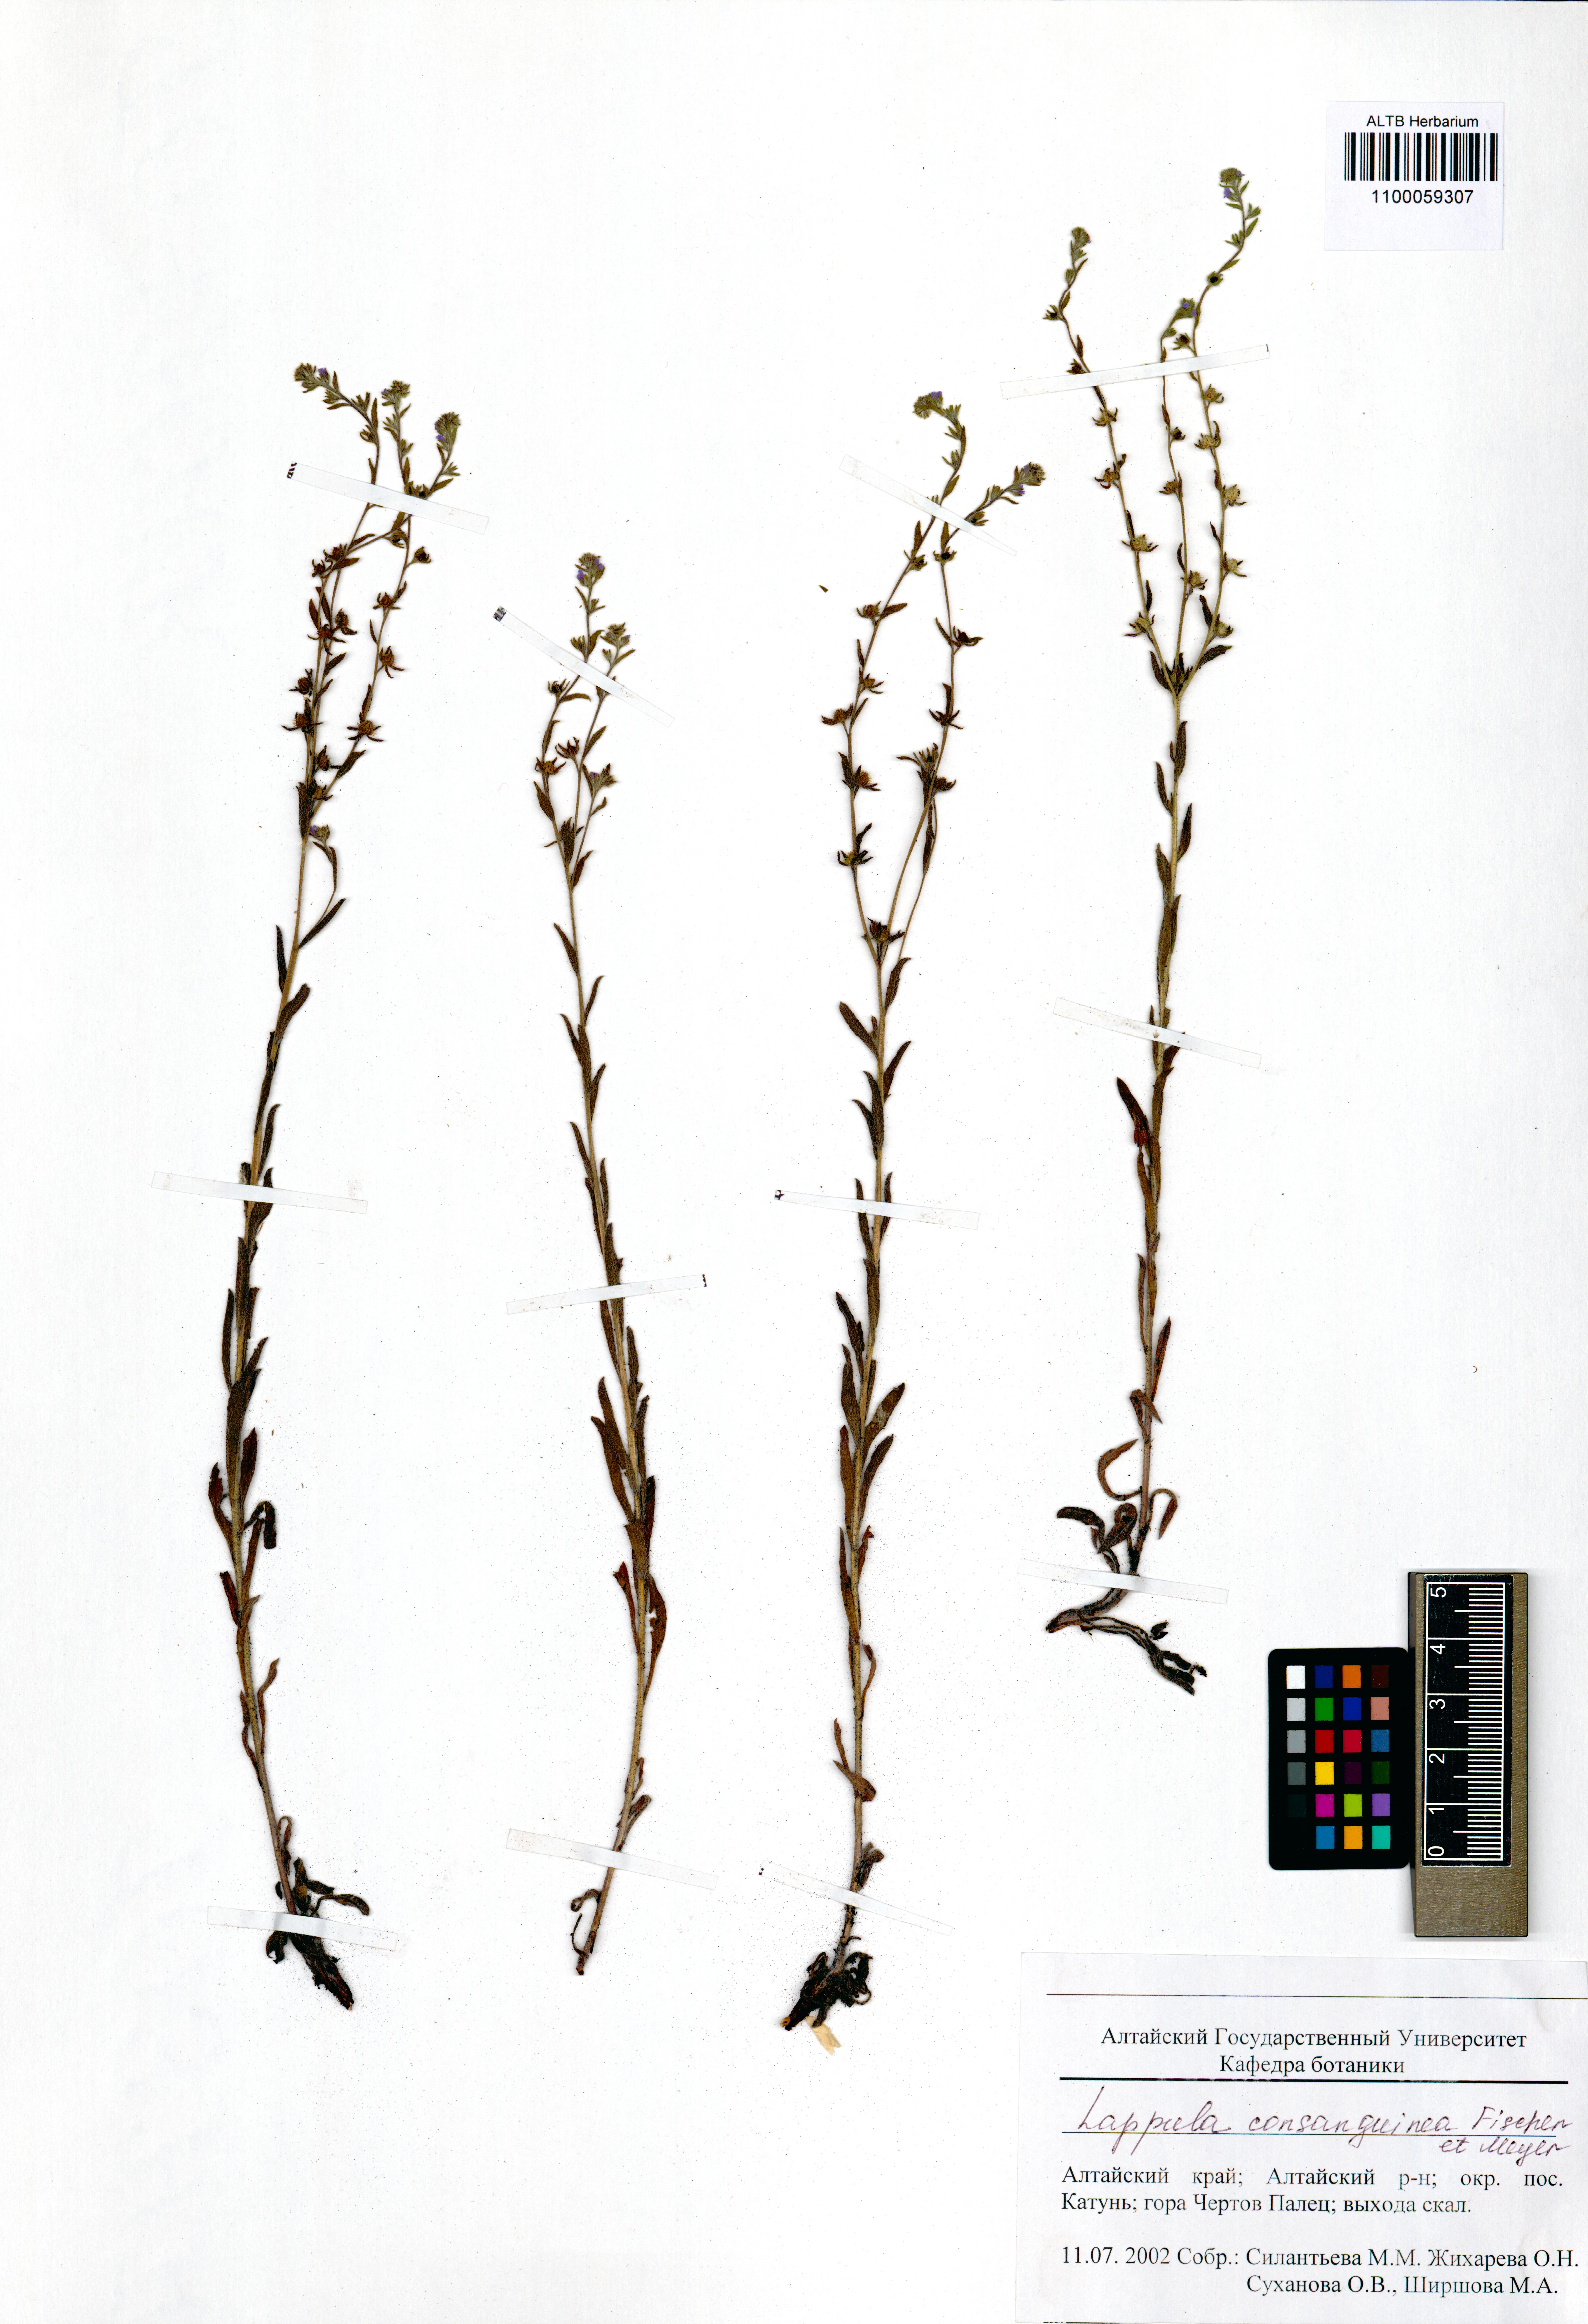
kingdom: Plantae
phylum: Tracheophyta
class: Magnoliopsida
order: Boraginales
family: Boraginaceae
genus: Lappula
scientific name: Lappula squarrosa
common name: European stickseed
